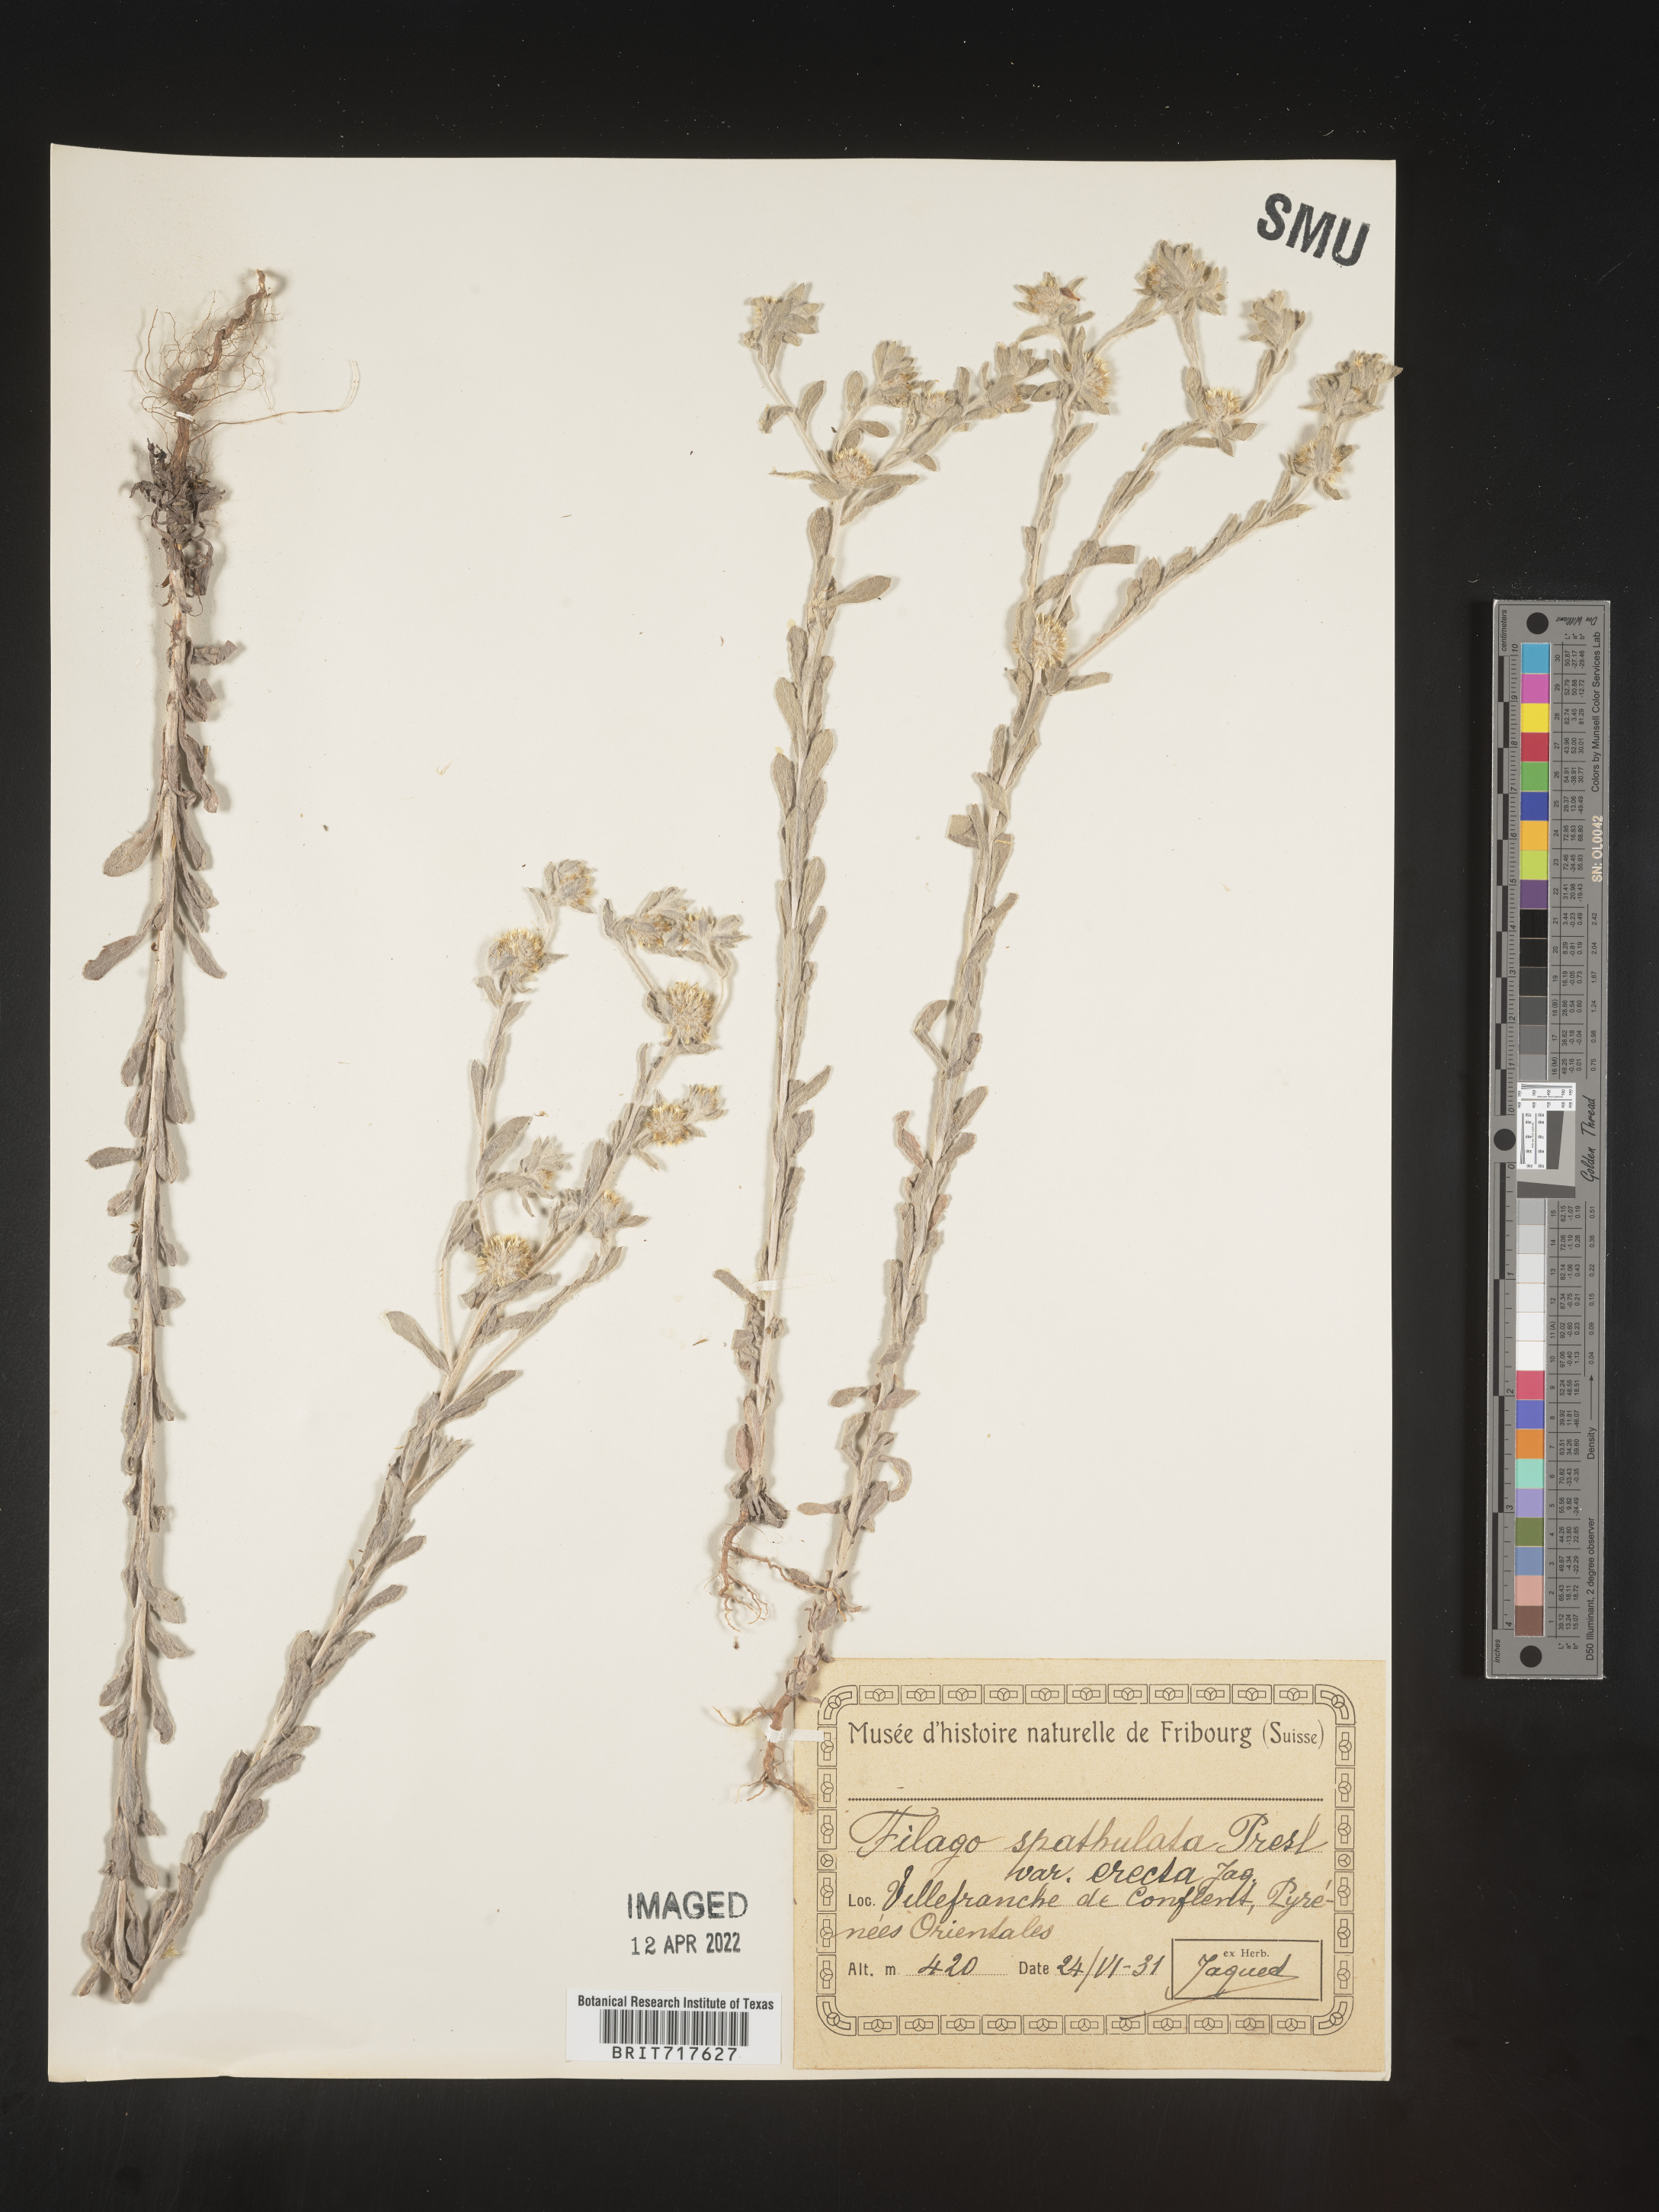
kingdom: Plantae
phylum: Tracheophyta
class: Magnoliopsida
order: Asterales
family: Asteraceae
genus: Filago
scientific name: Filago
